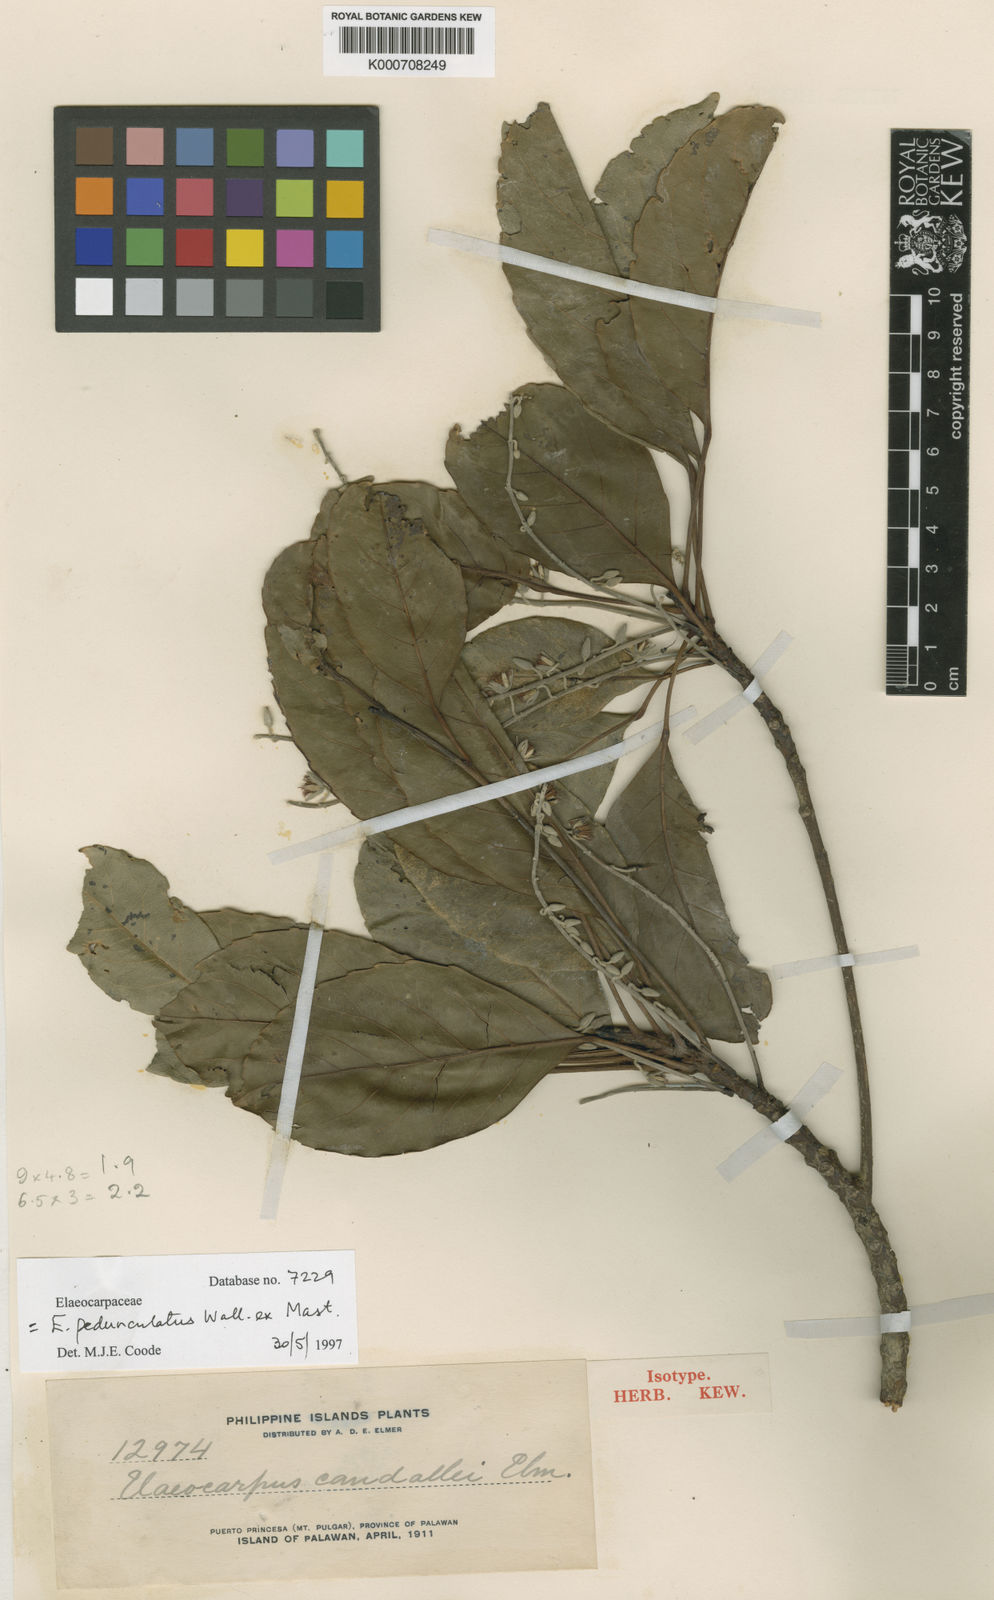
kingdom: Plantae
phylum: Tracheophyta
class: Magnoliopsida
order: Oxalidales
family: Elaeocarpaceae
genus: Elaeocarpus
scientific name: Elaeocarpus pedunculatus
